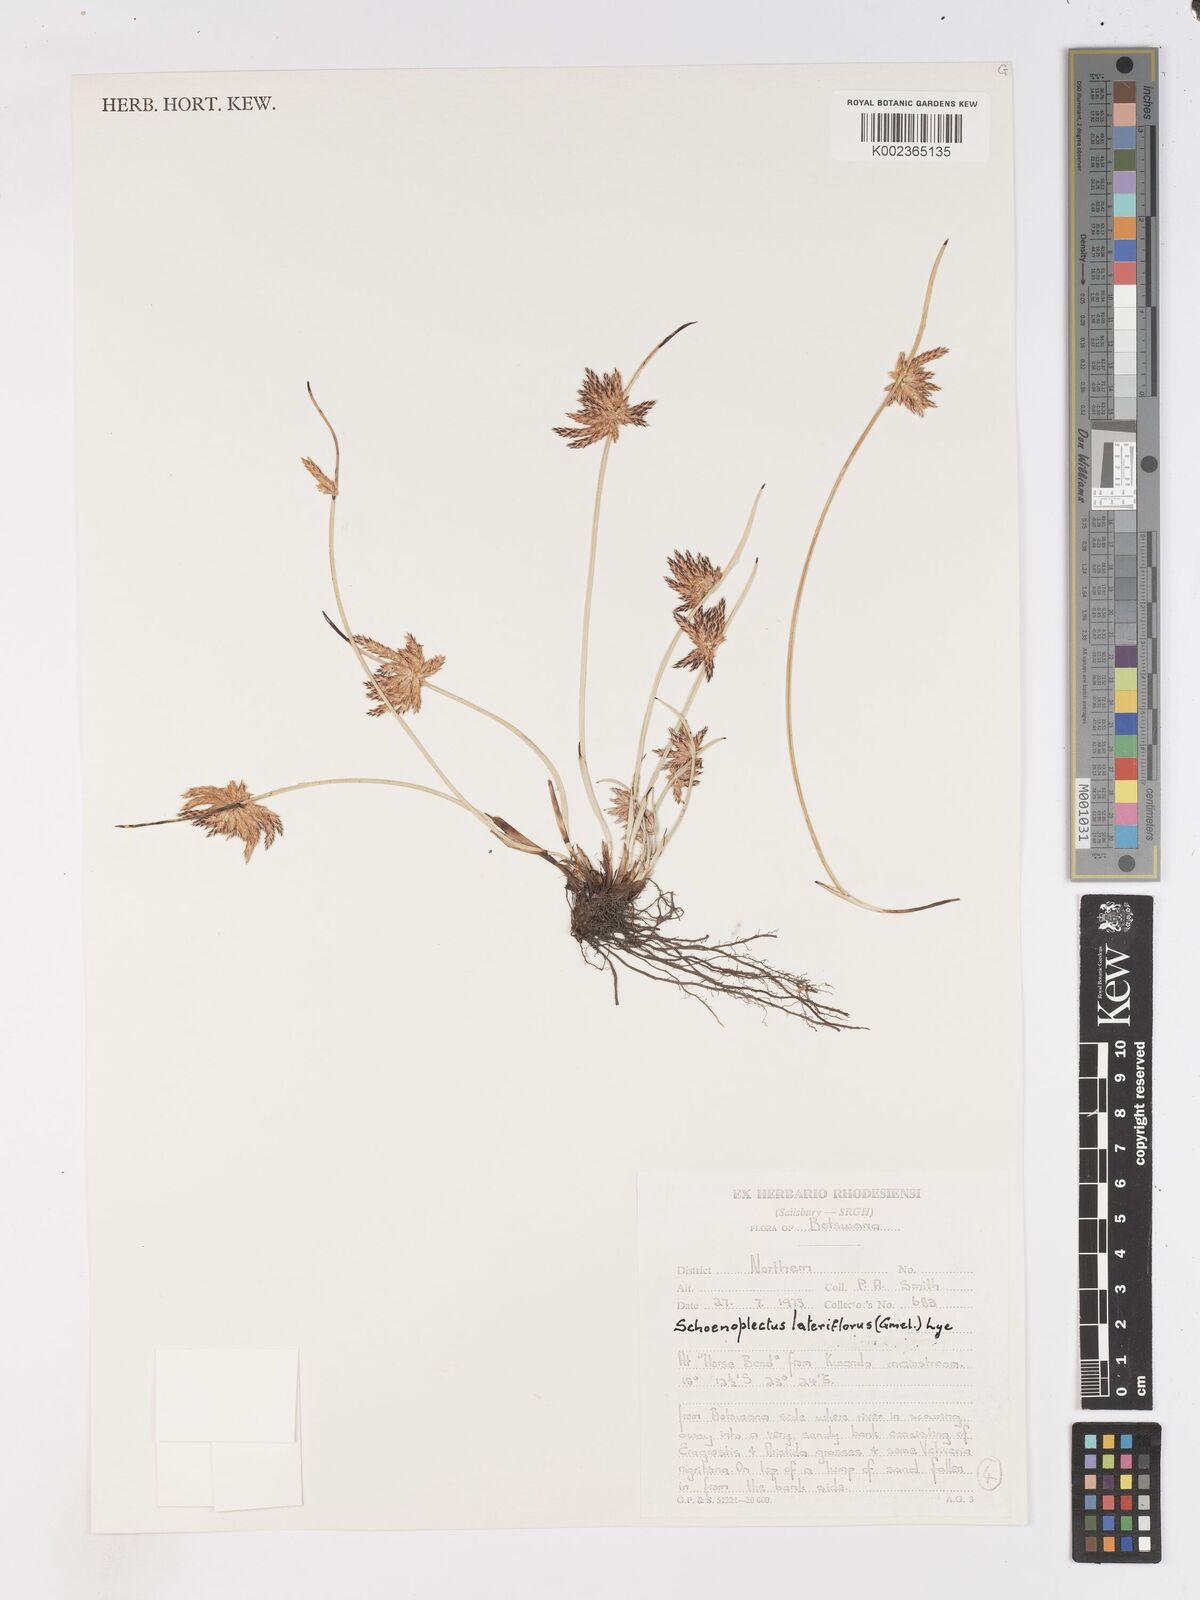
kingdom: Plantae
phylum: Tracheophyta
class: Liliopsida
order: Poales
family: Cyperaceae
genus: Schoenoplectiella
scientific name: Schoenoplectiella lateriflora
